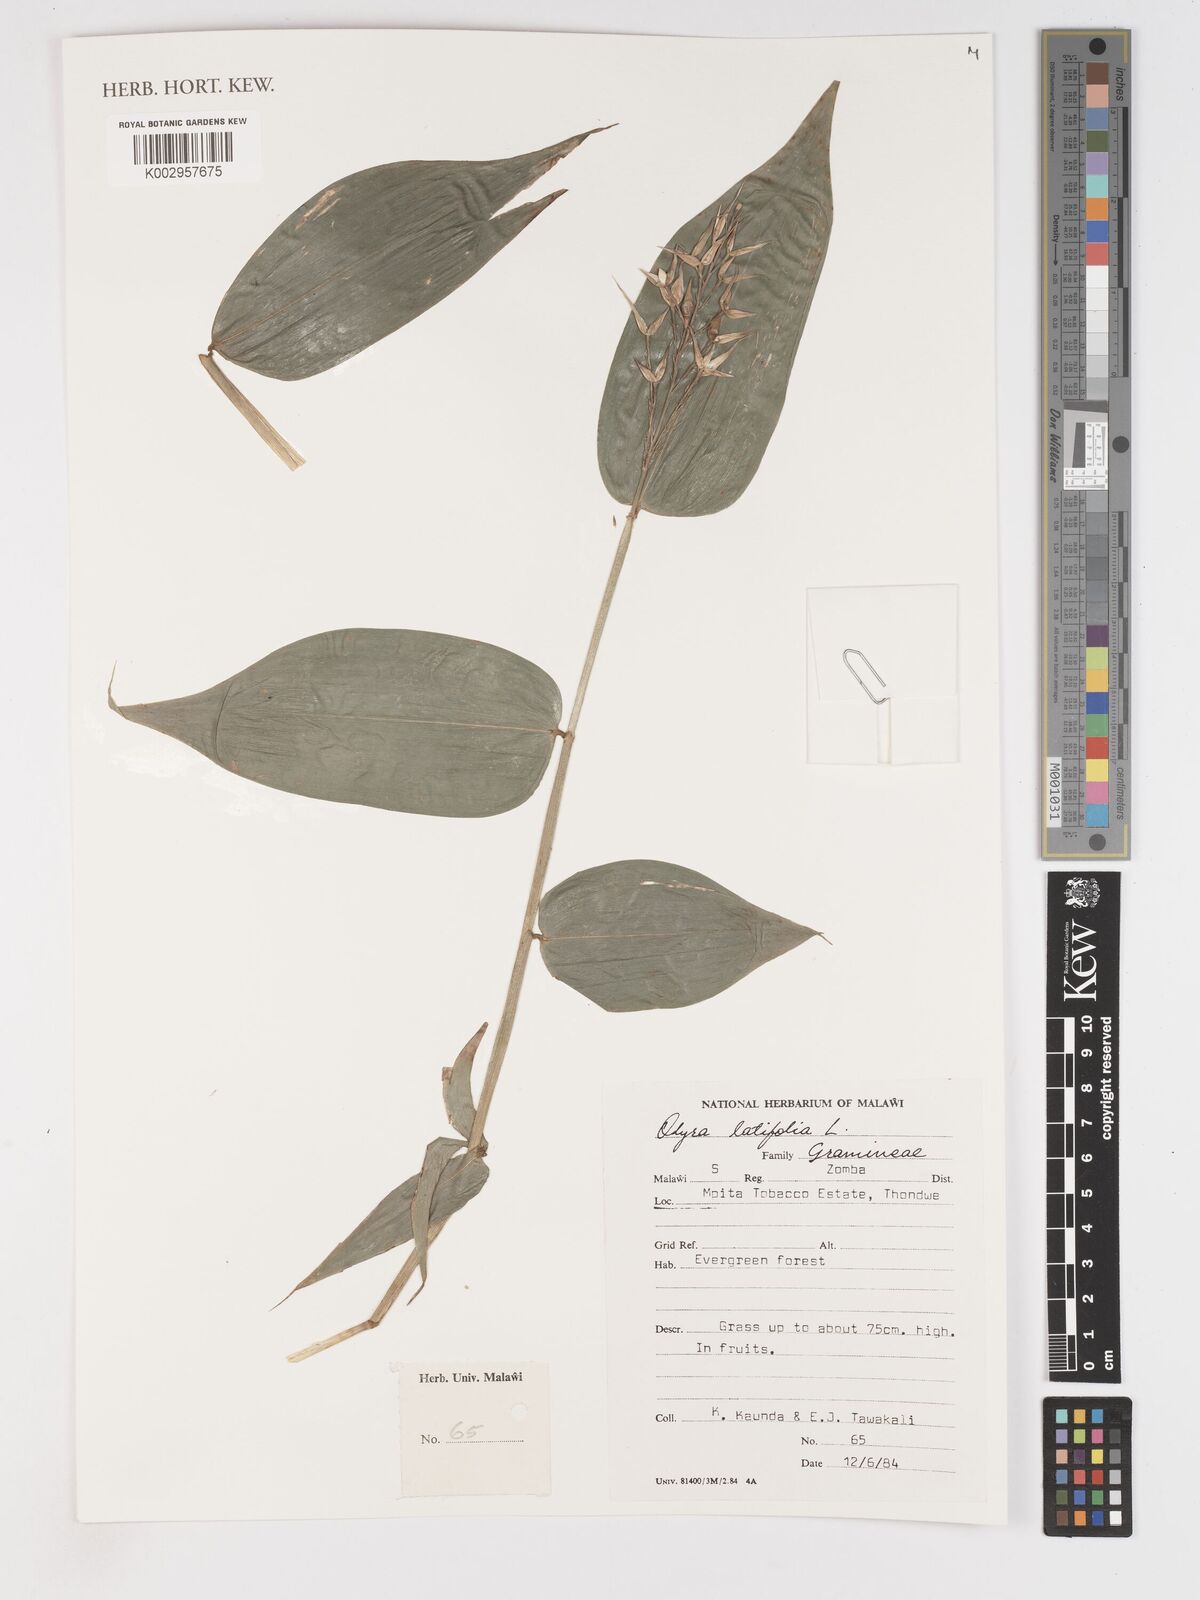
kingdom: Plantae
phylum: Tracheophyta
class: Liliopsida
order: Poales
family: Poaceae
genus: Olyra
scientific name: Olyra latifolia
